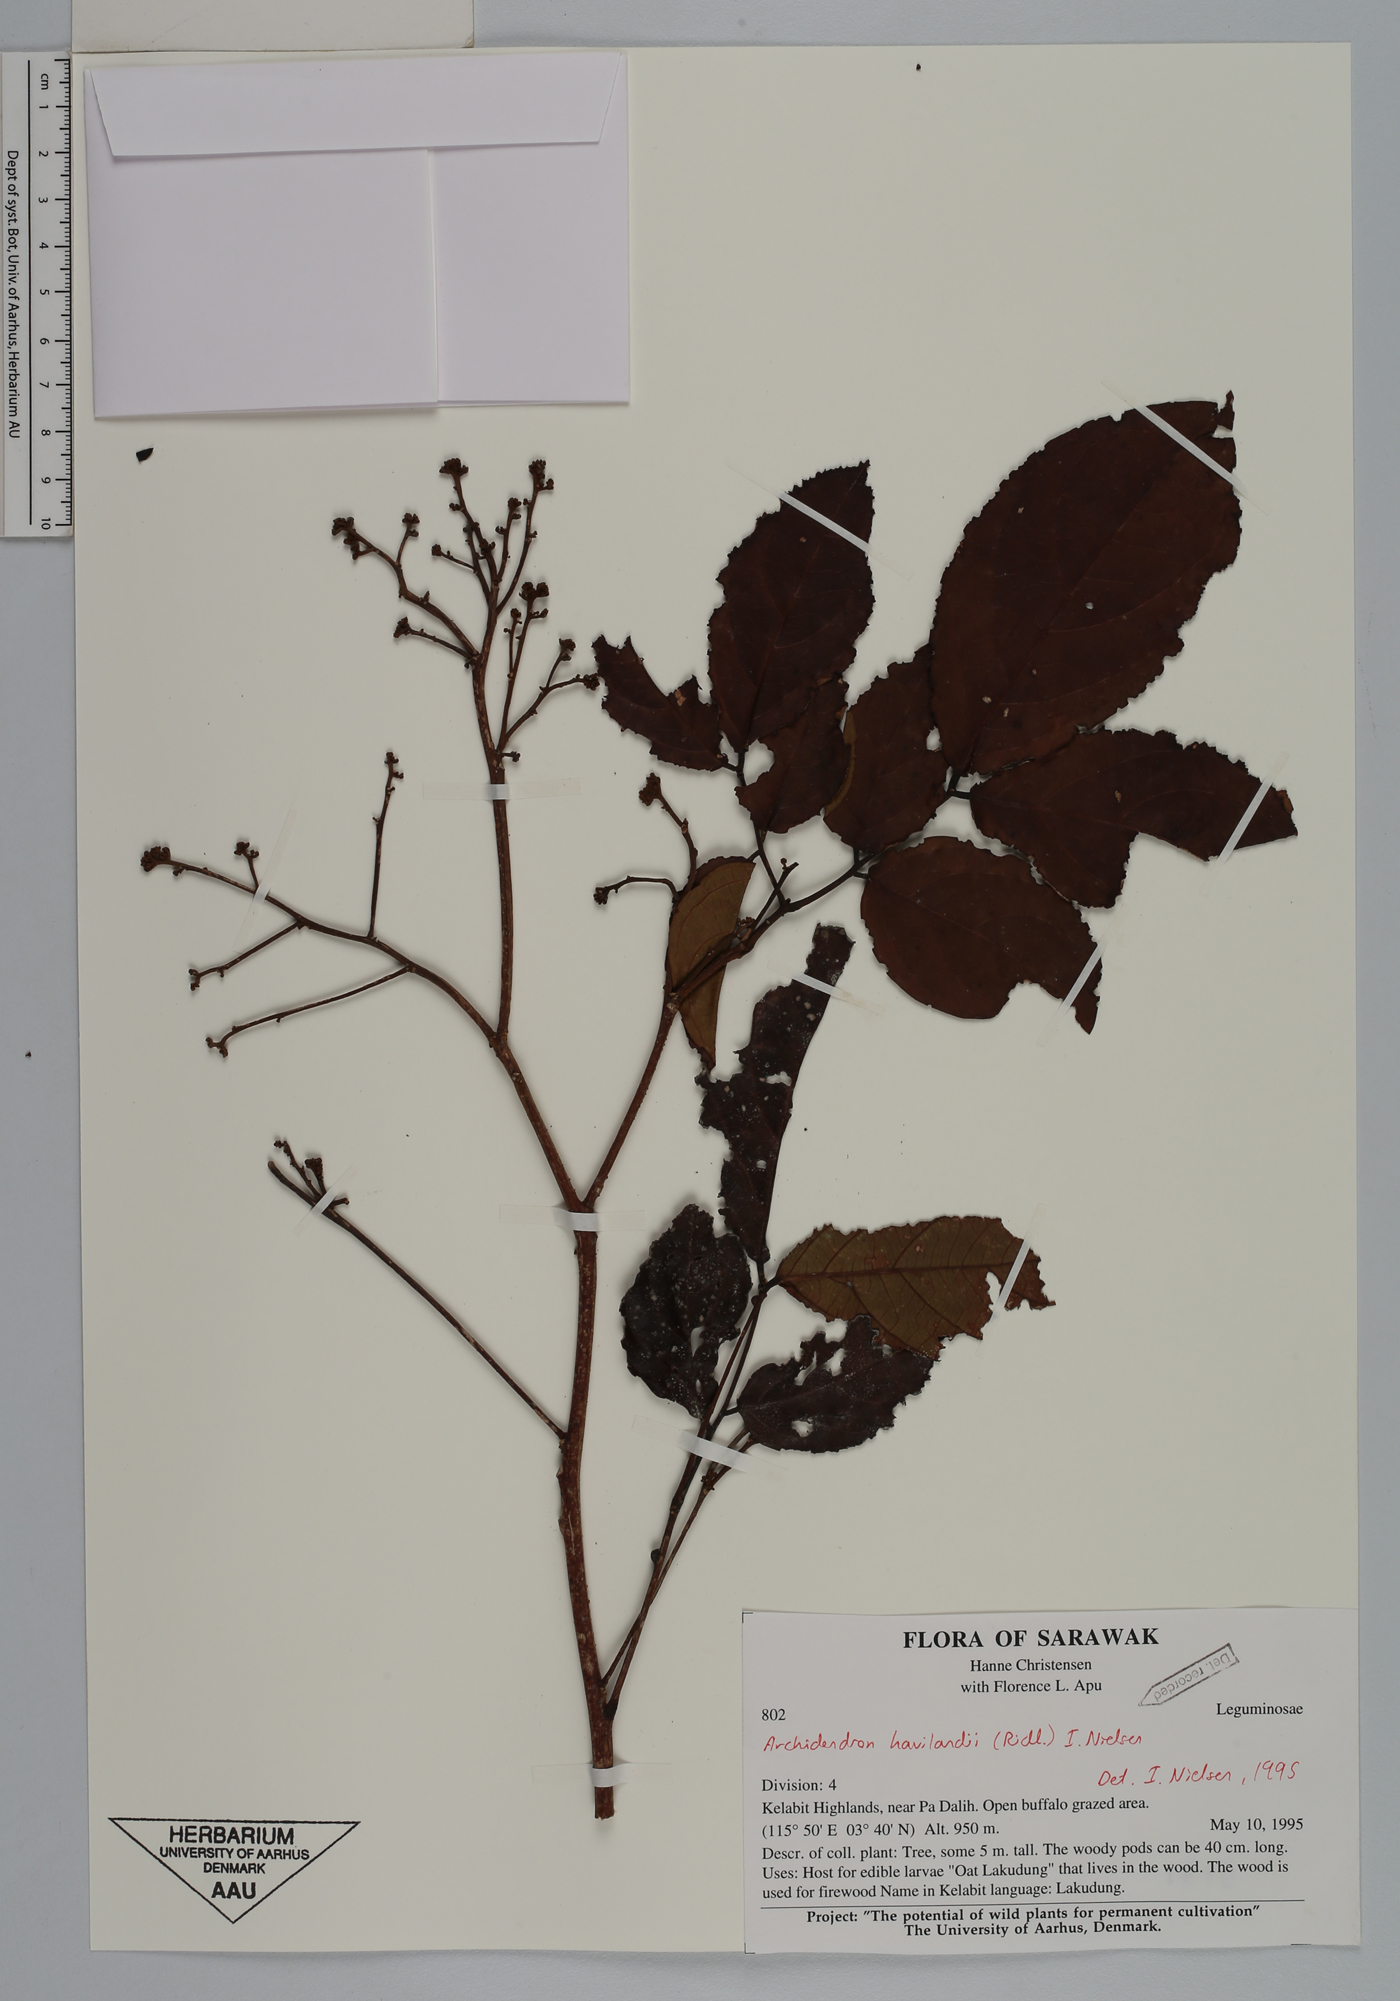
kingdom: Plantae
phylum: Tracheophyta
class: Magnoliopsida
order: Fabales
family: Fabaceae
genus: Archidendron
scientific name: Archidendron havilandii
